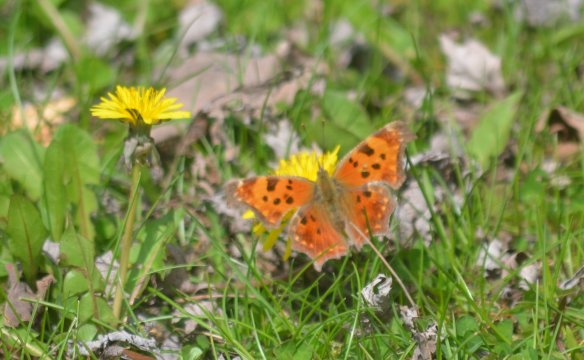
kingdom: Animalia
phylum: Arthropoda
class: Insecta
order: Lepidoptera
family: Nymphalidae
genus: Polygonia
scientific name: Polygonia comma
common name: Eastern Comma
